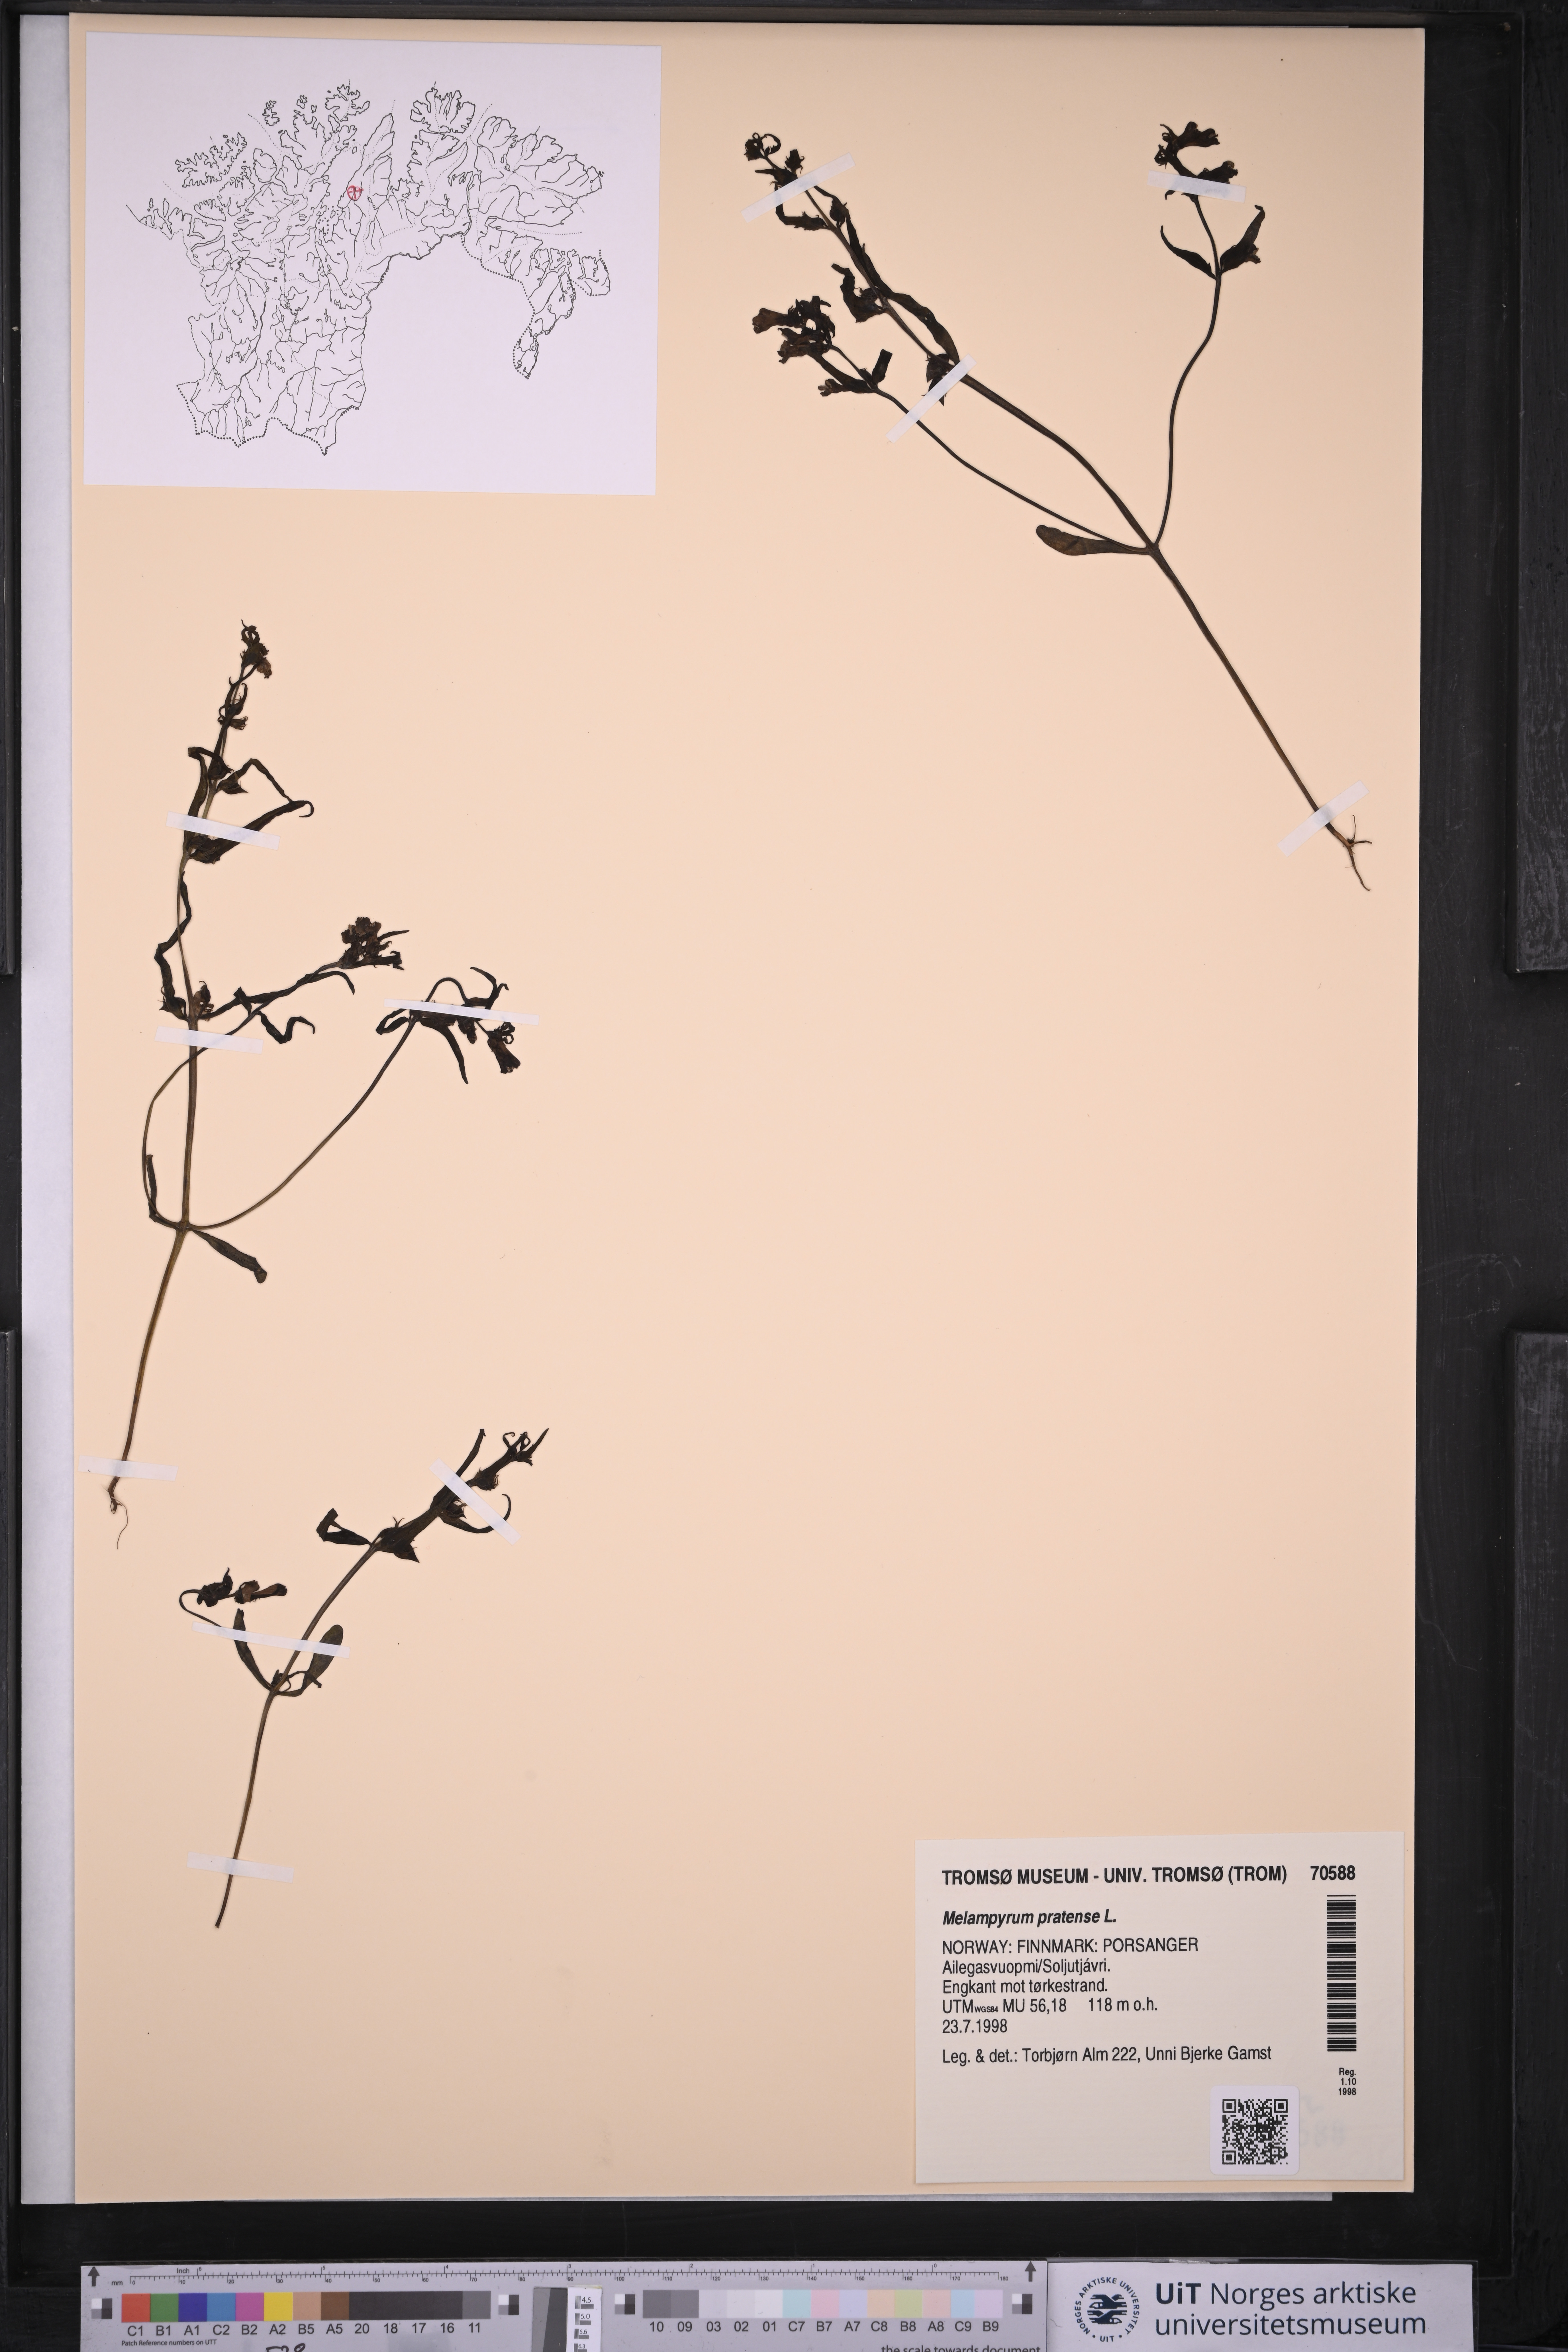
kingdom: Plantae
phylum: Tracheophyta
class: Magnoliopsida
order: Lamiales
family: Orobanchaceae
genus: Melampyrum
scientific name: Melampyrum pratense
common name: Common cow-wheat
